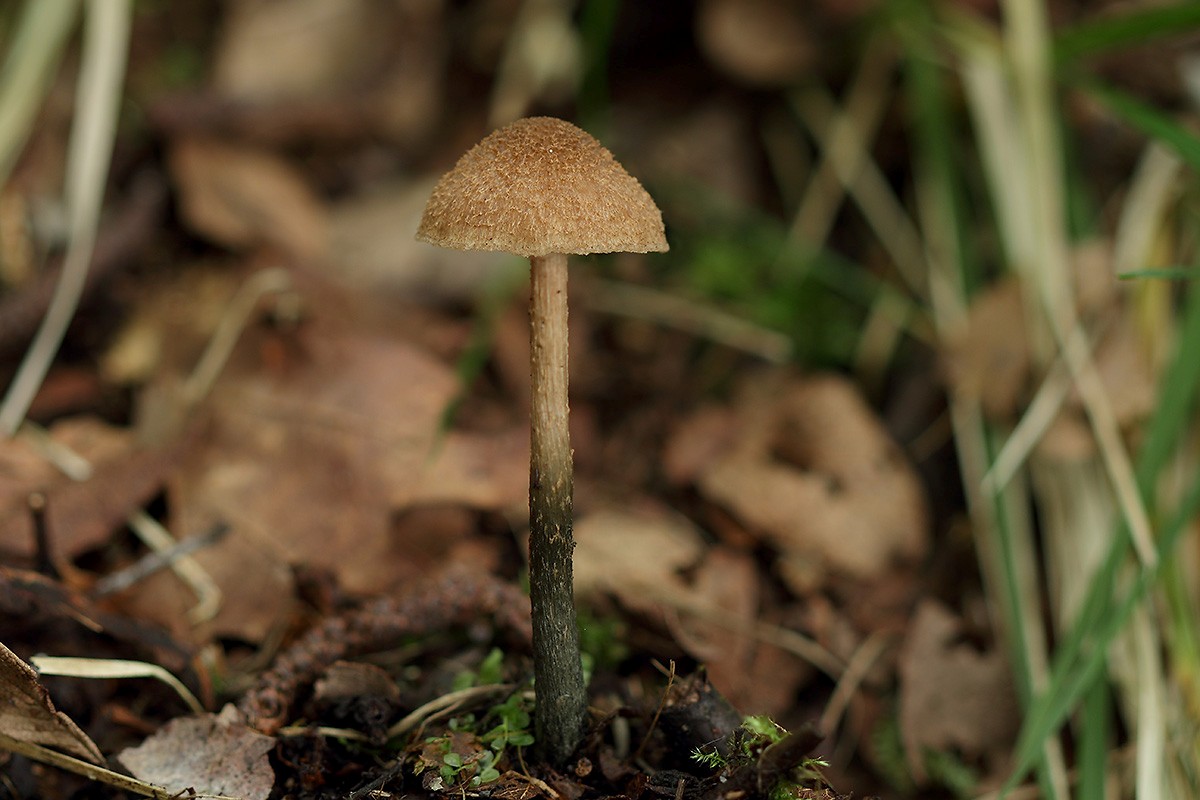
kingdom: Fungi
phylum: Basidiomycota
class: Agaricomycetes
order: Agaricales
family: Inocybaceae
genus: Inosperma
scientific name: Inosperma calamistratum
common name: grønfodet trævlhat
